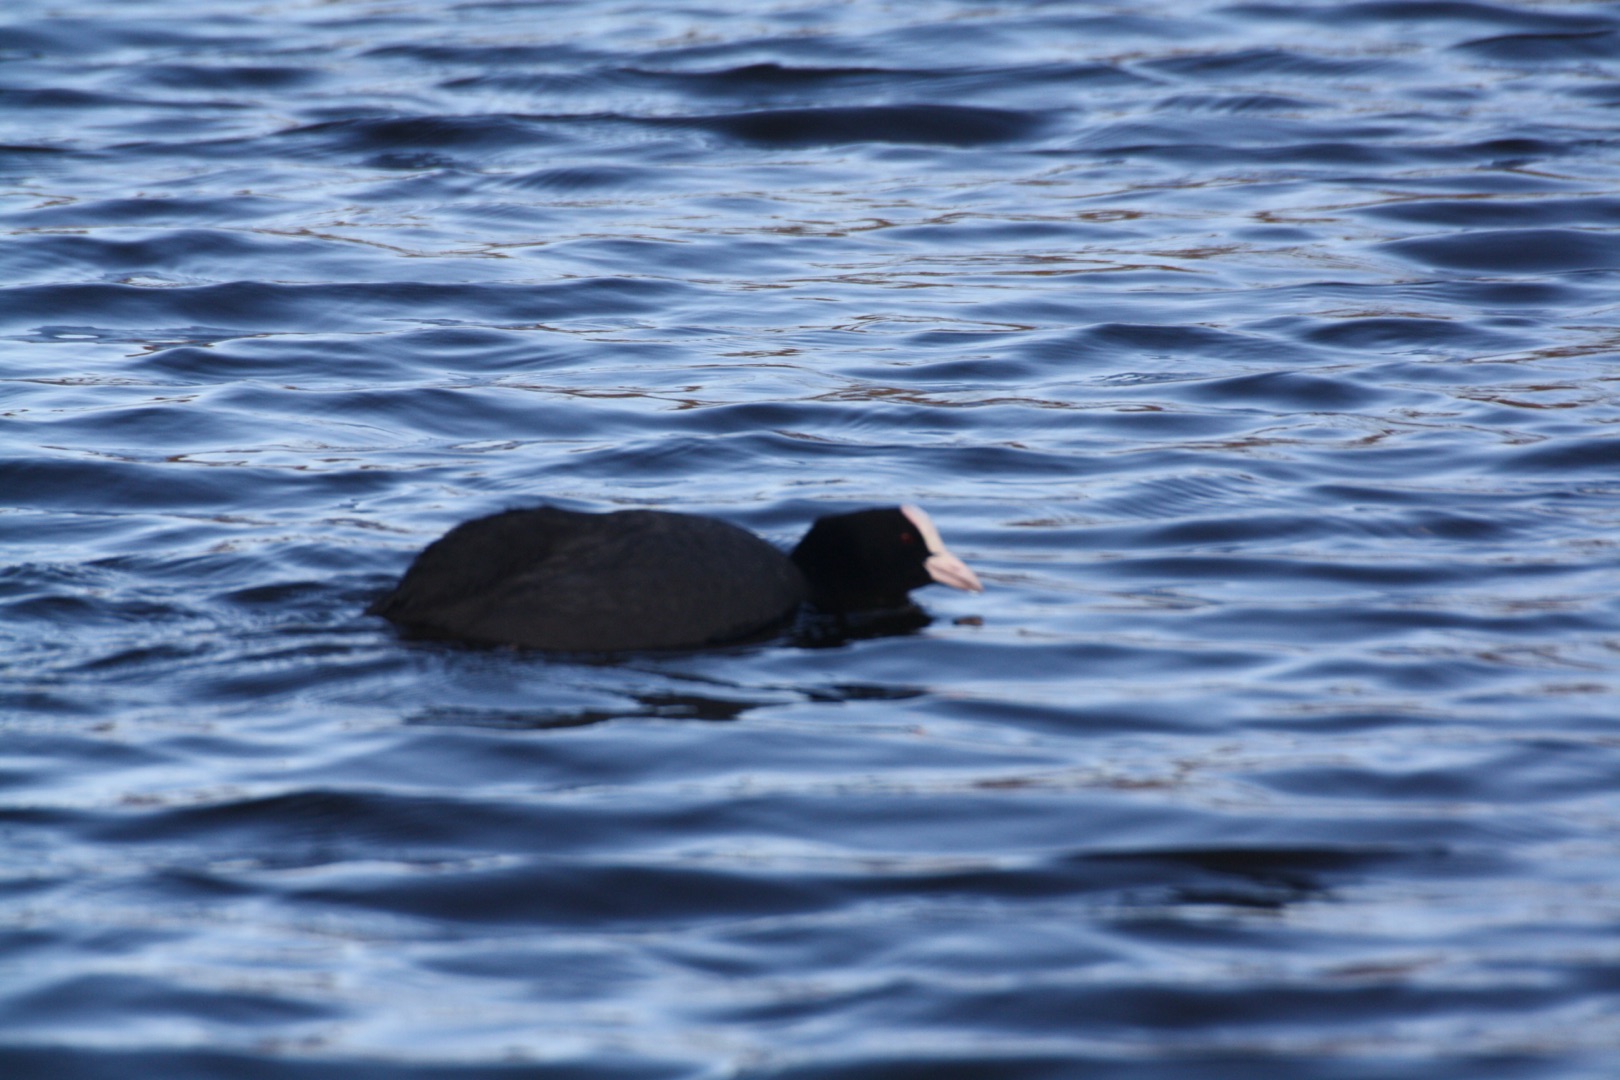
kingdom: Animalia
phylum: Chordata
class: Aves
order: Gruiformes
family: Rallidae
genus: Fulica
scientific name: Fulica atra
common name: Blishøne
